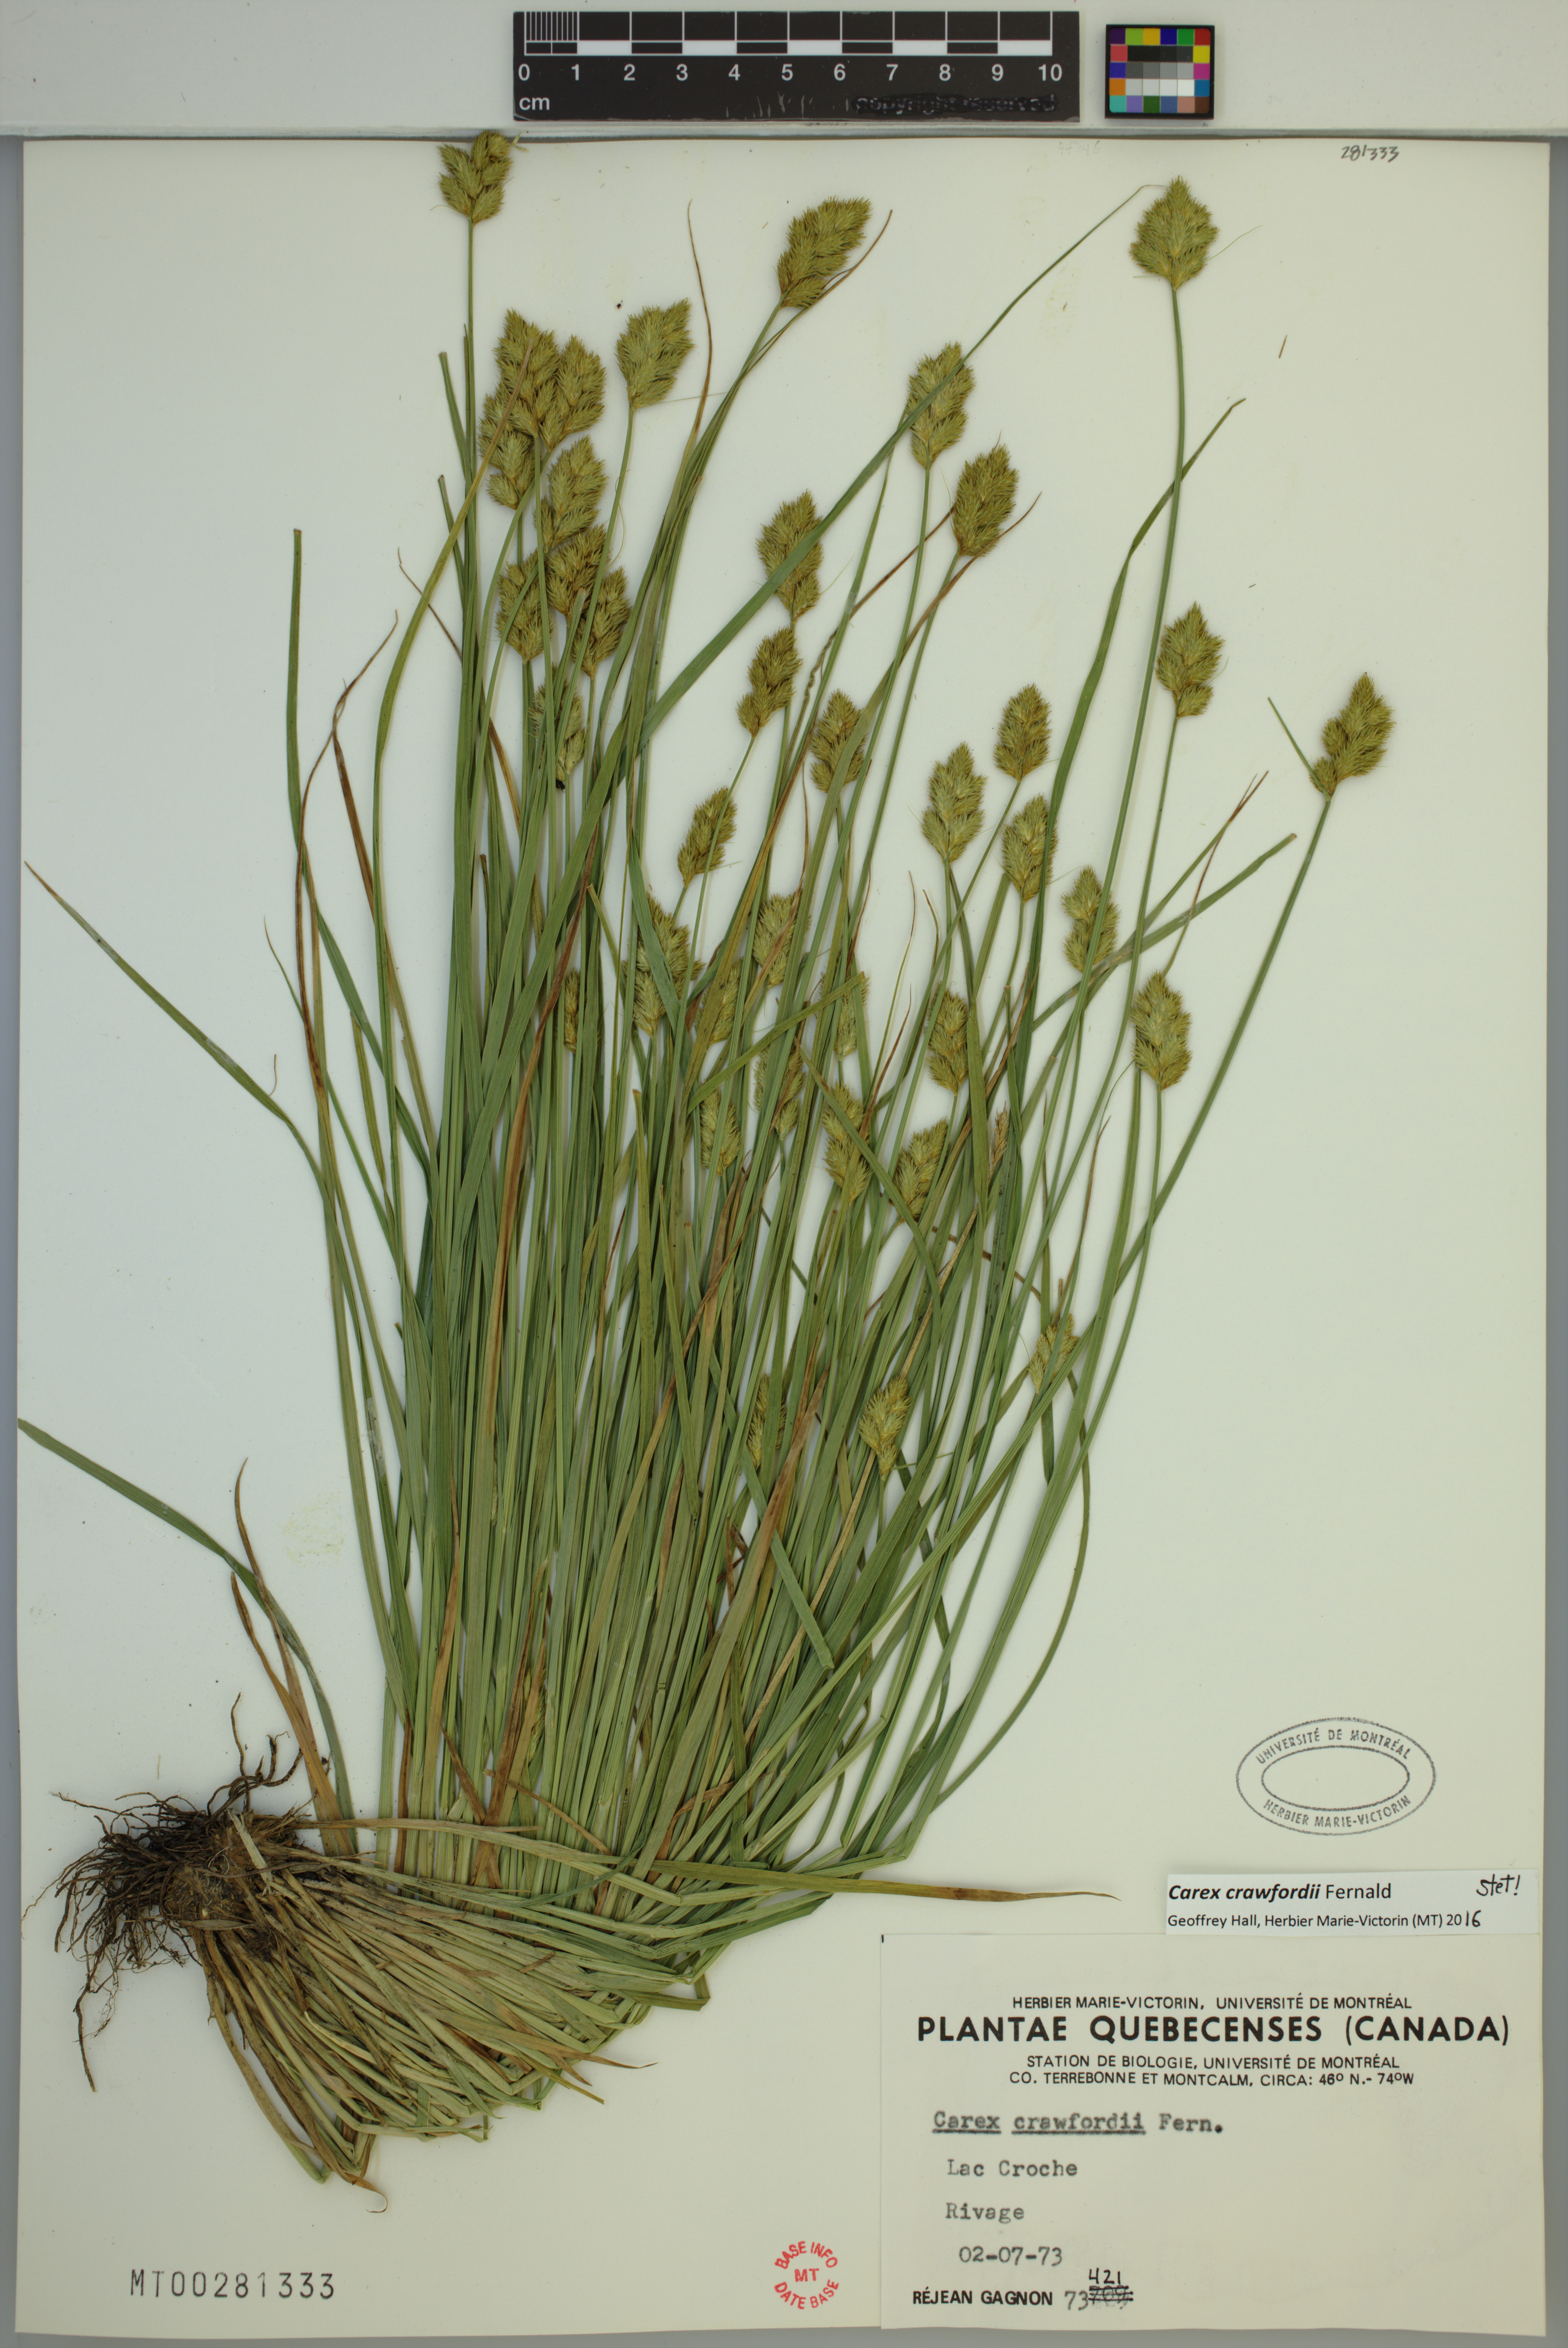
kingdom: Plantae
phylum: Tracheophyta
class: Liliopsida
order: Poales
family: Cyperaceae
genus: Carex
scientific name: Carex crawfordii
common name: Crawford's sedge
